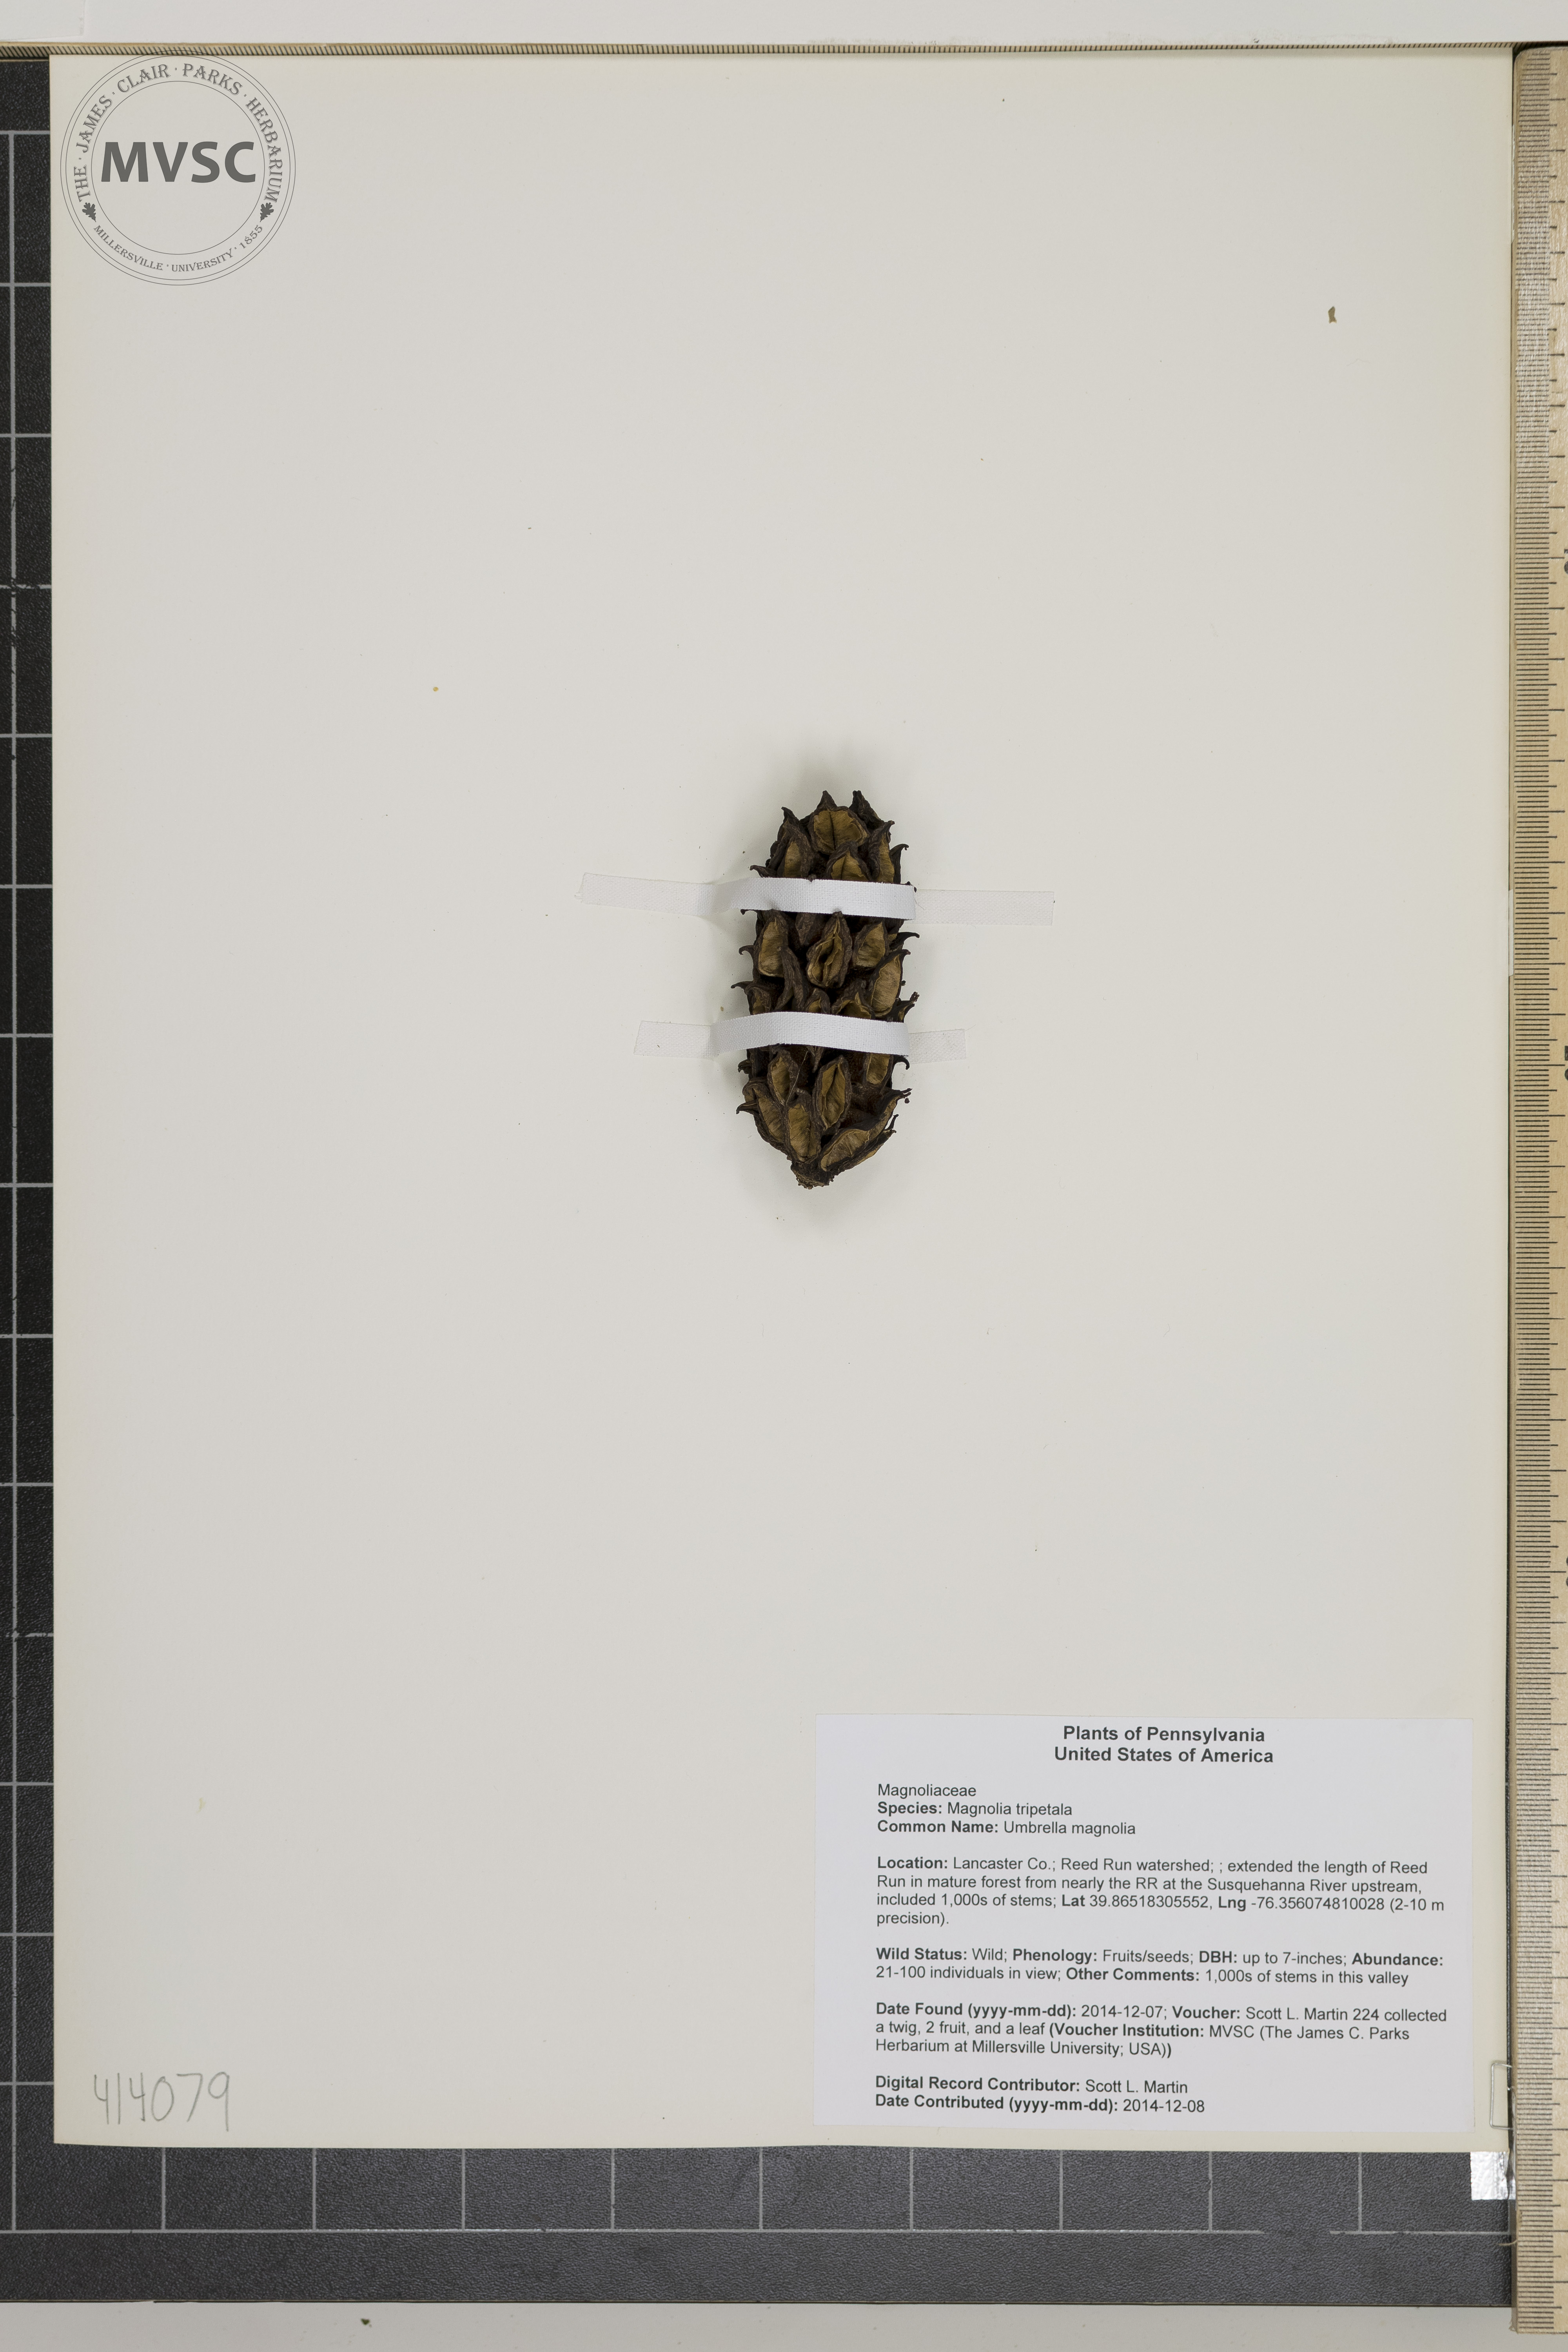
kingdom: Plantae
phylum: Tracheophyta
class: Magnoliopsida
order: Magnoliales
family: Magnoliaceae
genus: Magnolia
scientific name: Magnolia tripetala
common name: Umbrella magnolia
